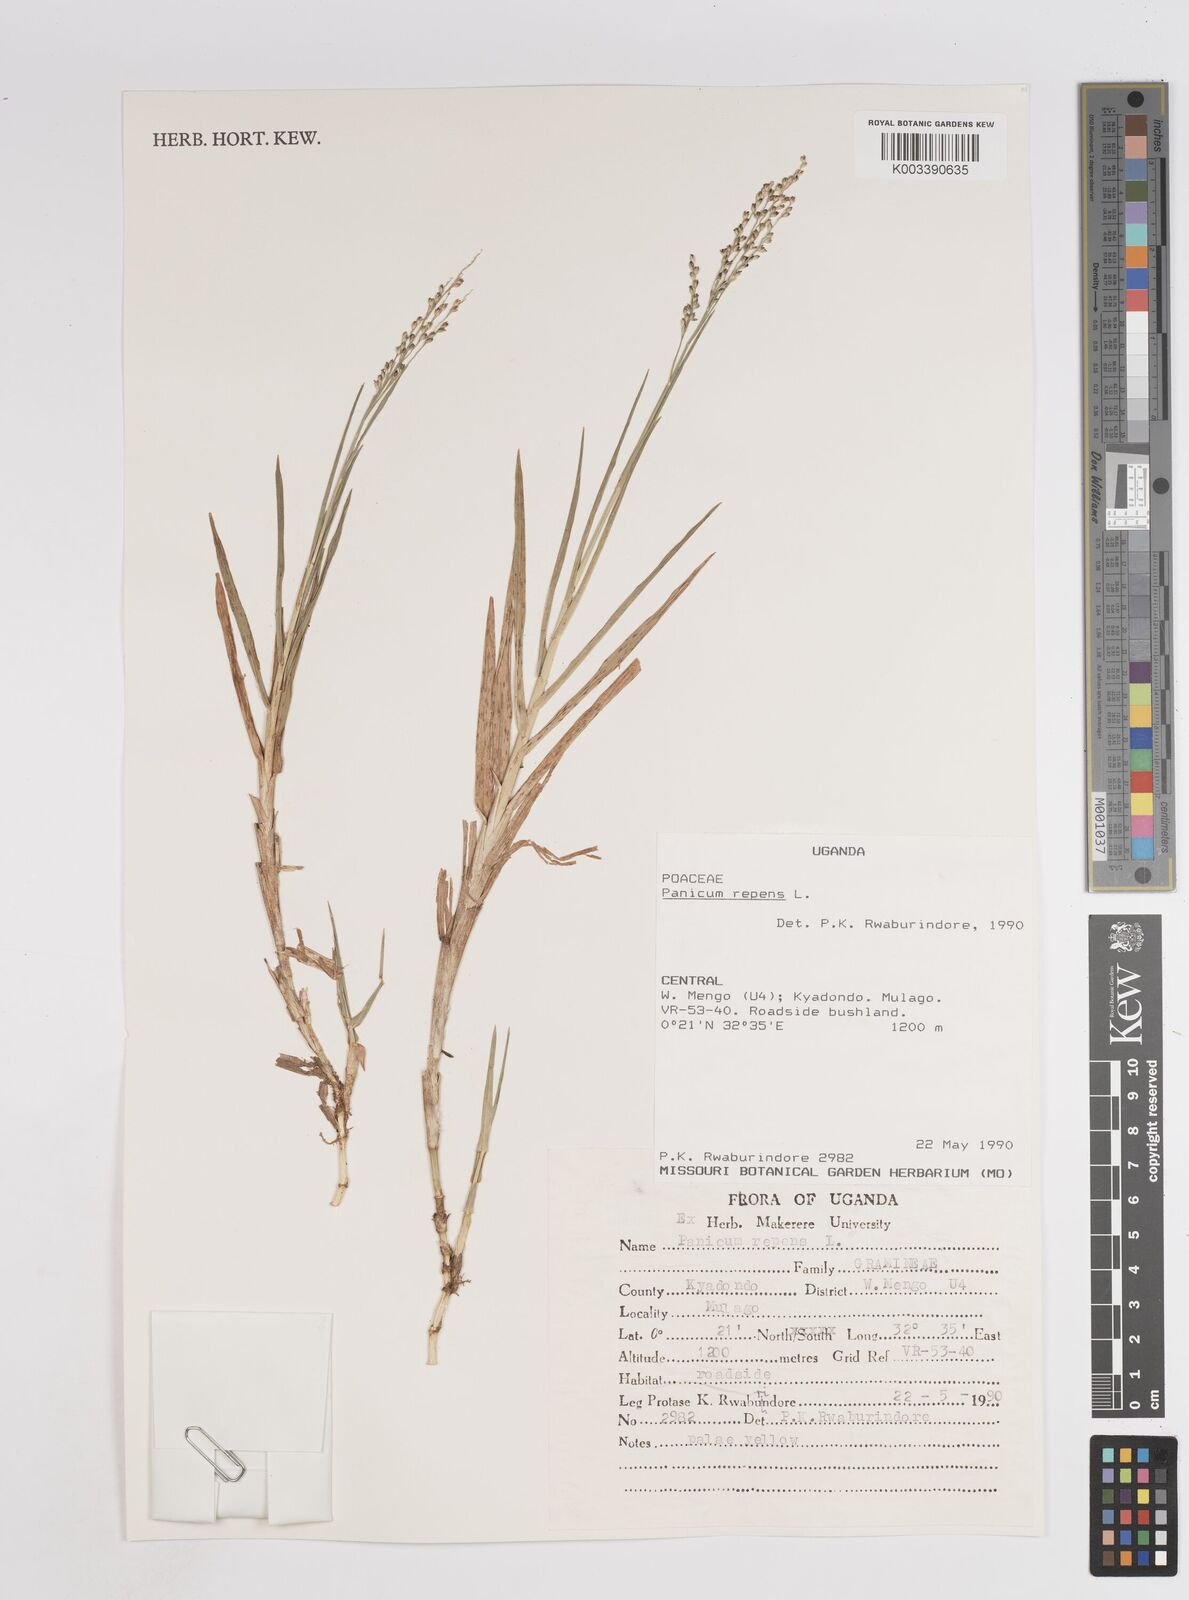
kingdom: Plantae
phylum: Tracheophyta
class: Liliopsida
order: Poales
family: Poaceae
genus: Panicum
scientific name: Panicum repens
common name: Torpedo grass
